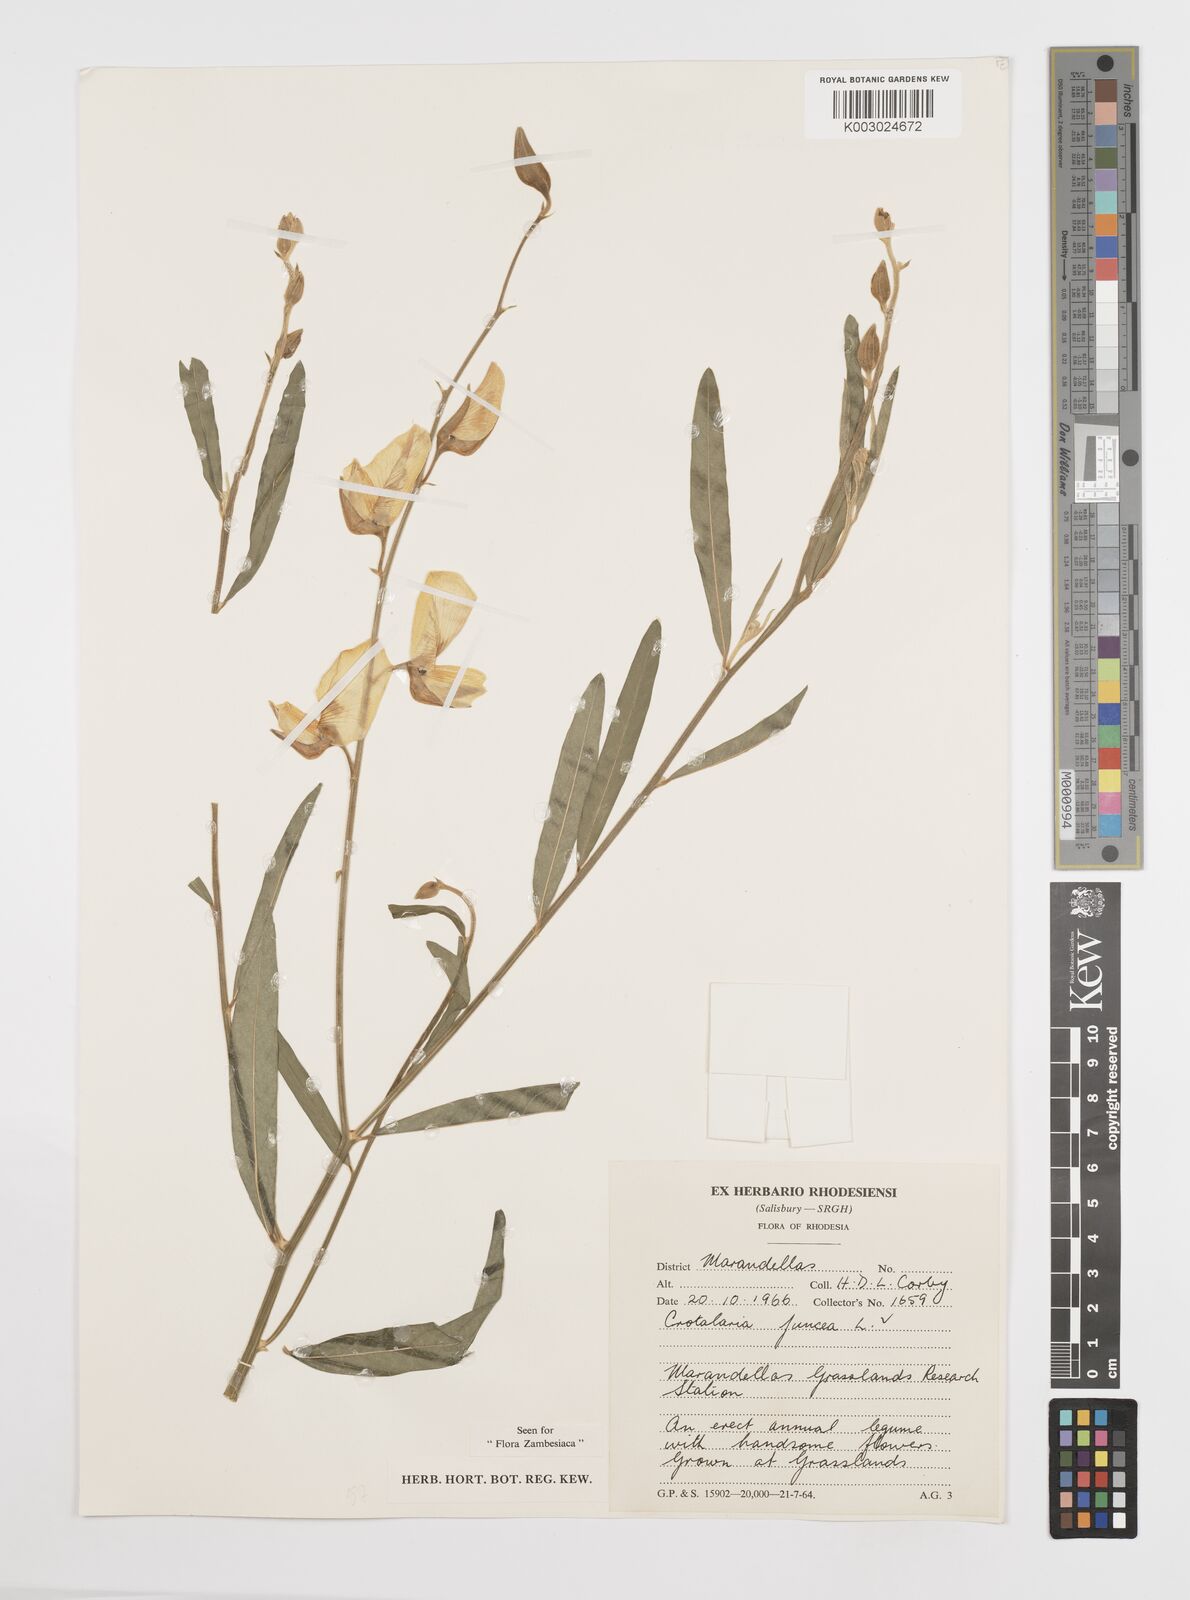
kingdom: Plantae
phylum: Tracheophyta
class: Magnoliopsida
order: Fabales
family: Fabaceae
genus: Crotalaria
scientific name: Crotalaria juncea
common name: Sunn hemp
